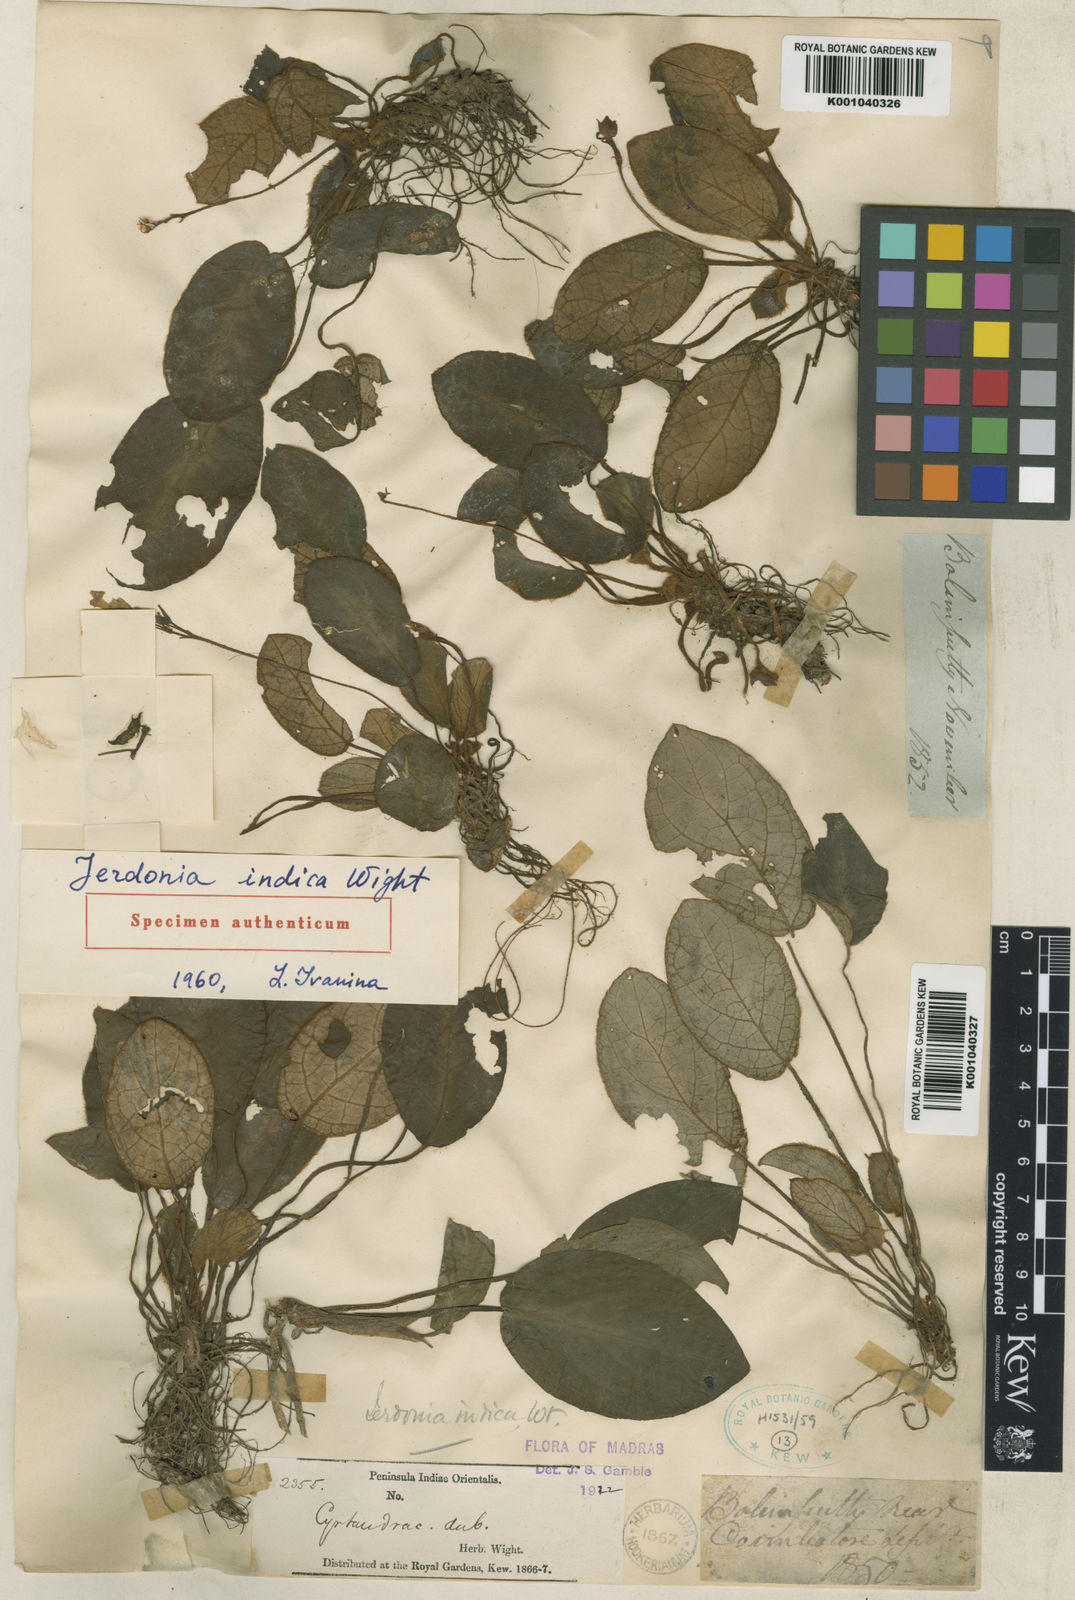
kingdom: Plantae
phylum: Tracheophyta
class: Magnoliopsida
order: Lamiales
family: Gesneriaceae
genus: Jerdonia
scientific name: Jerdonia indica
